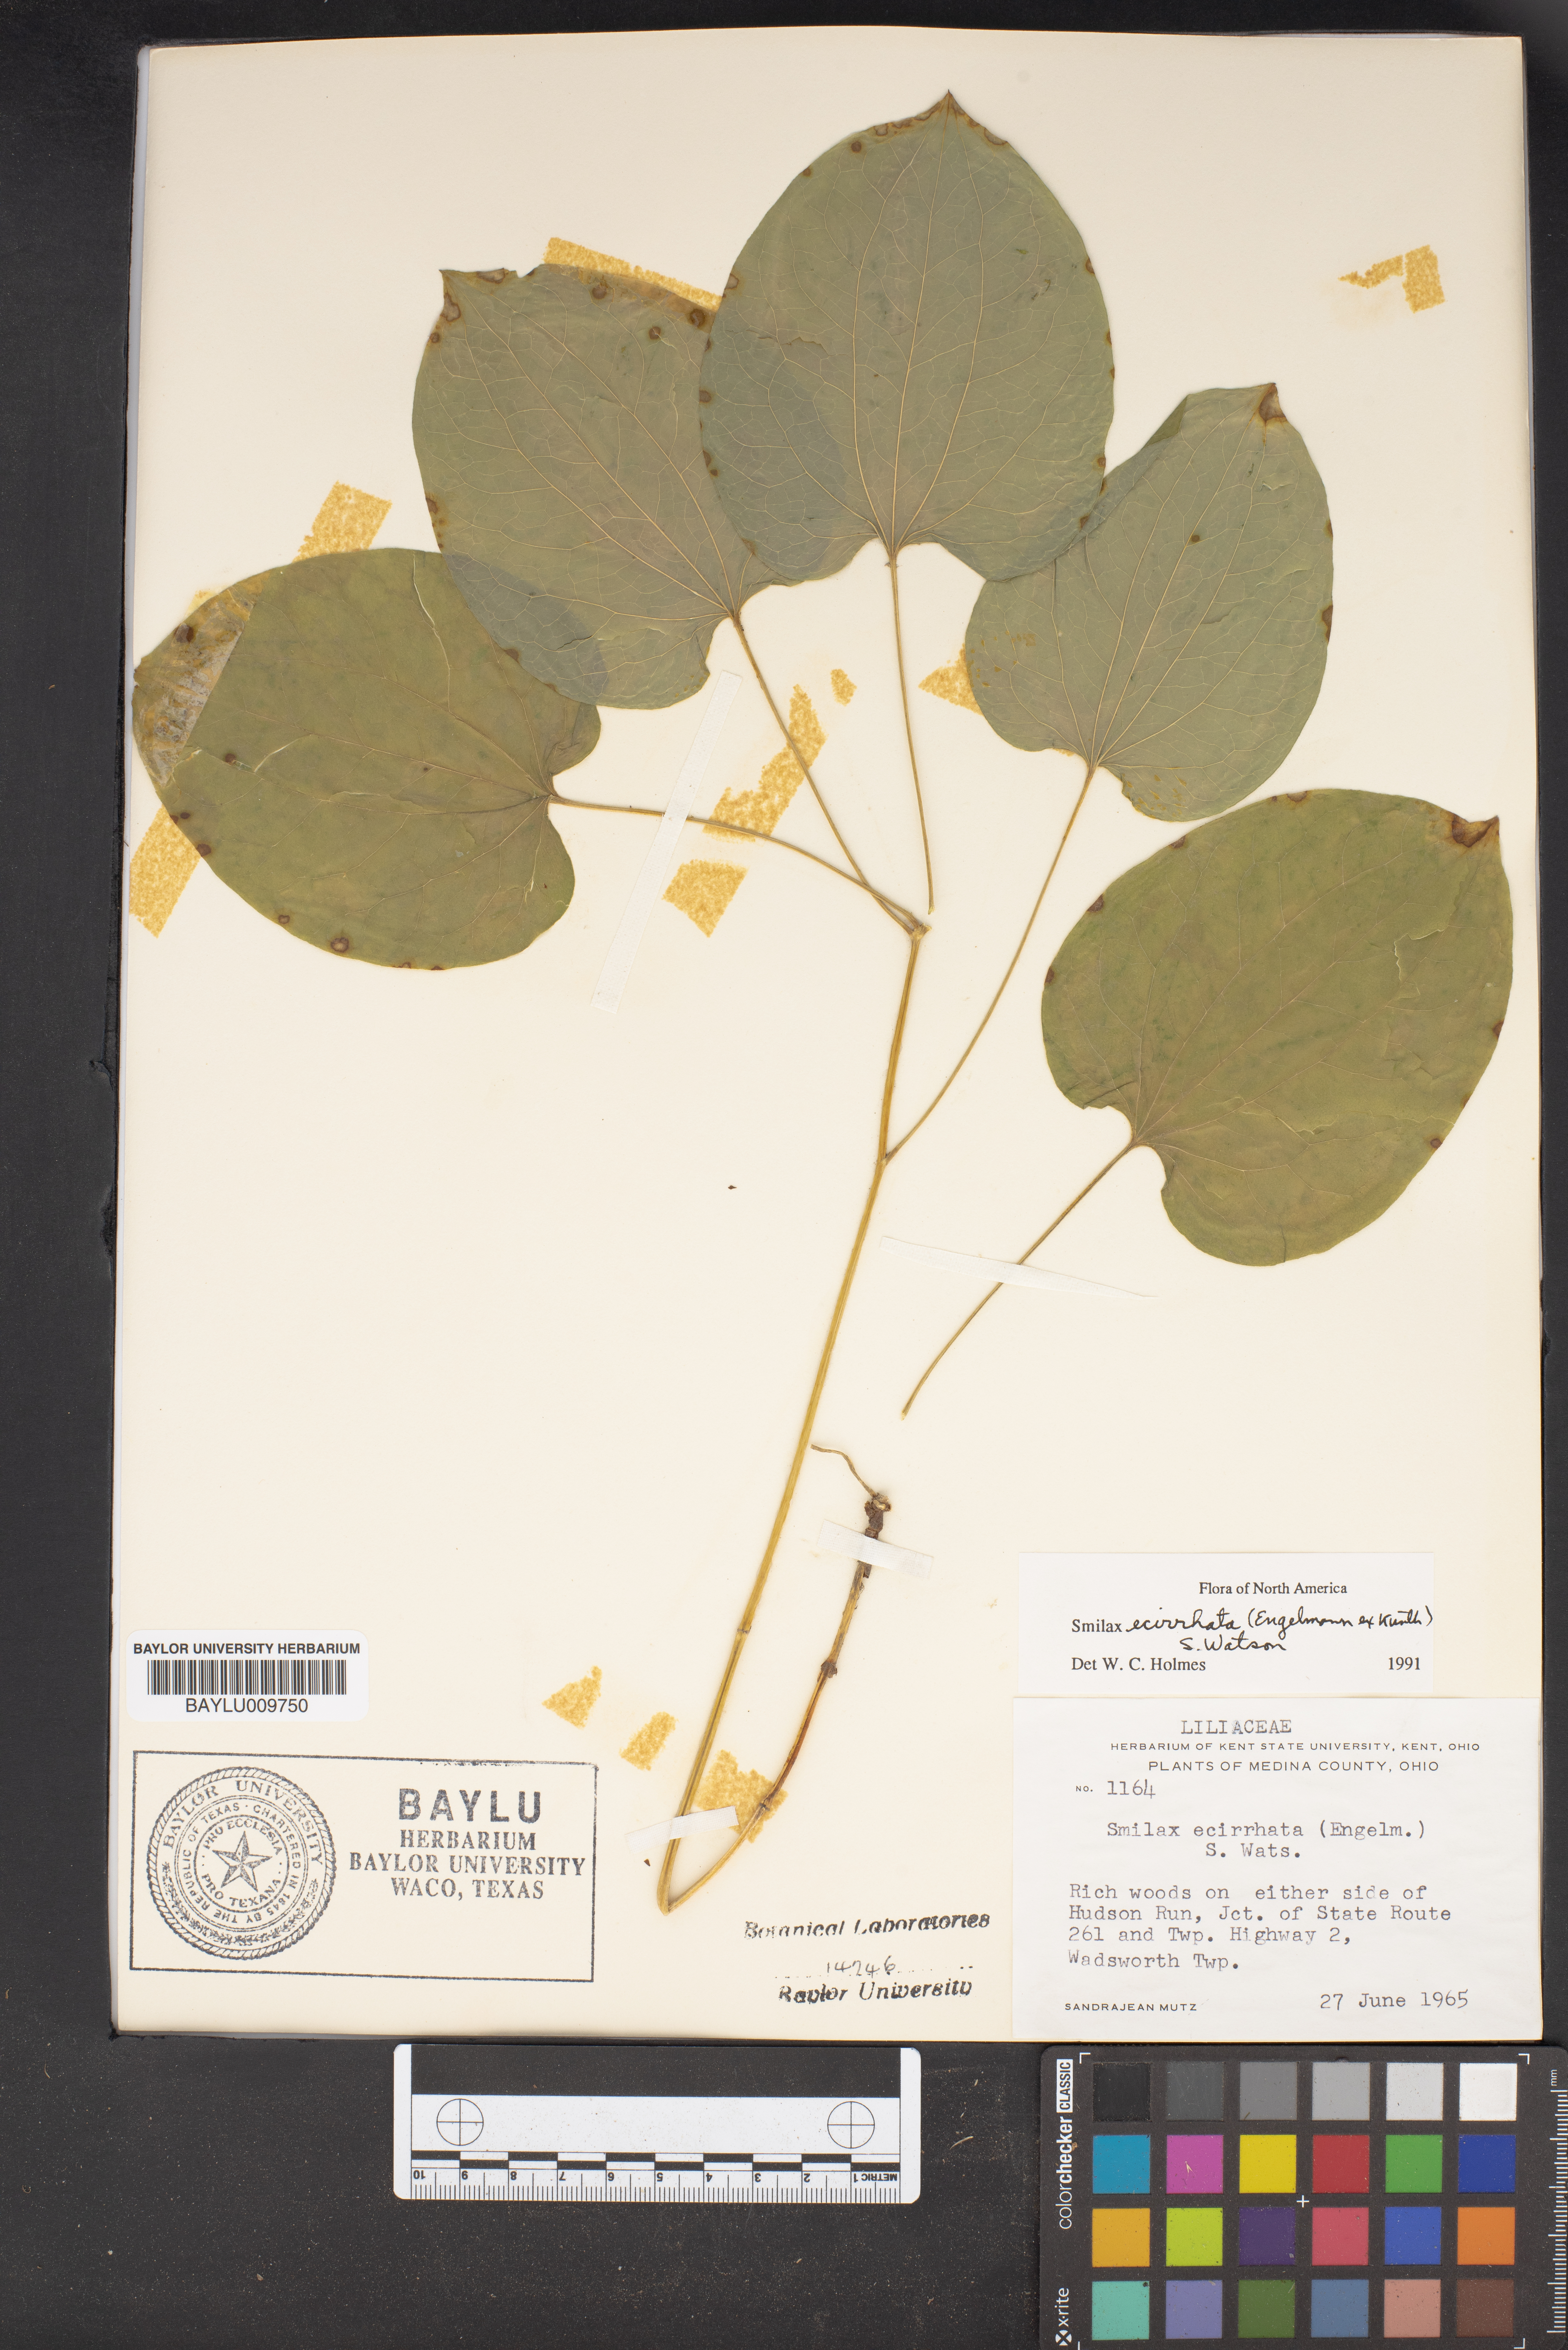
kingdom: Plantae
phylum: Tracheophyta
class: Liliopsida
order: Liliales
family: Smilacaceae
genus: Smilax
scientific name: Smilax ecirrhata
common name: Upright carrionflower
